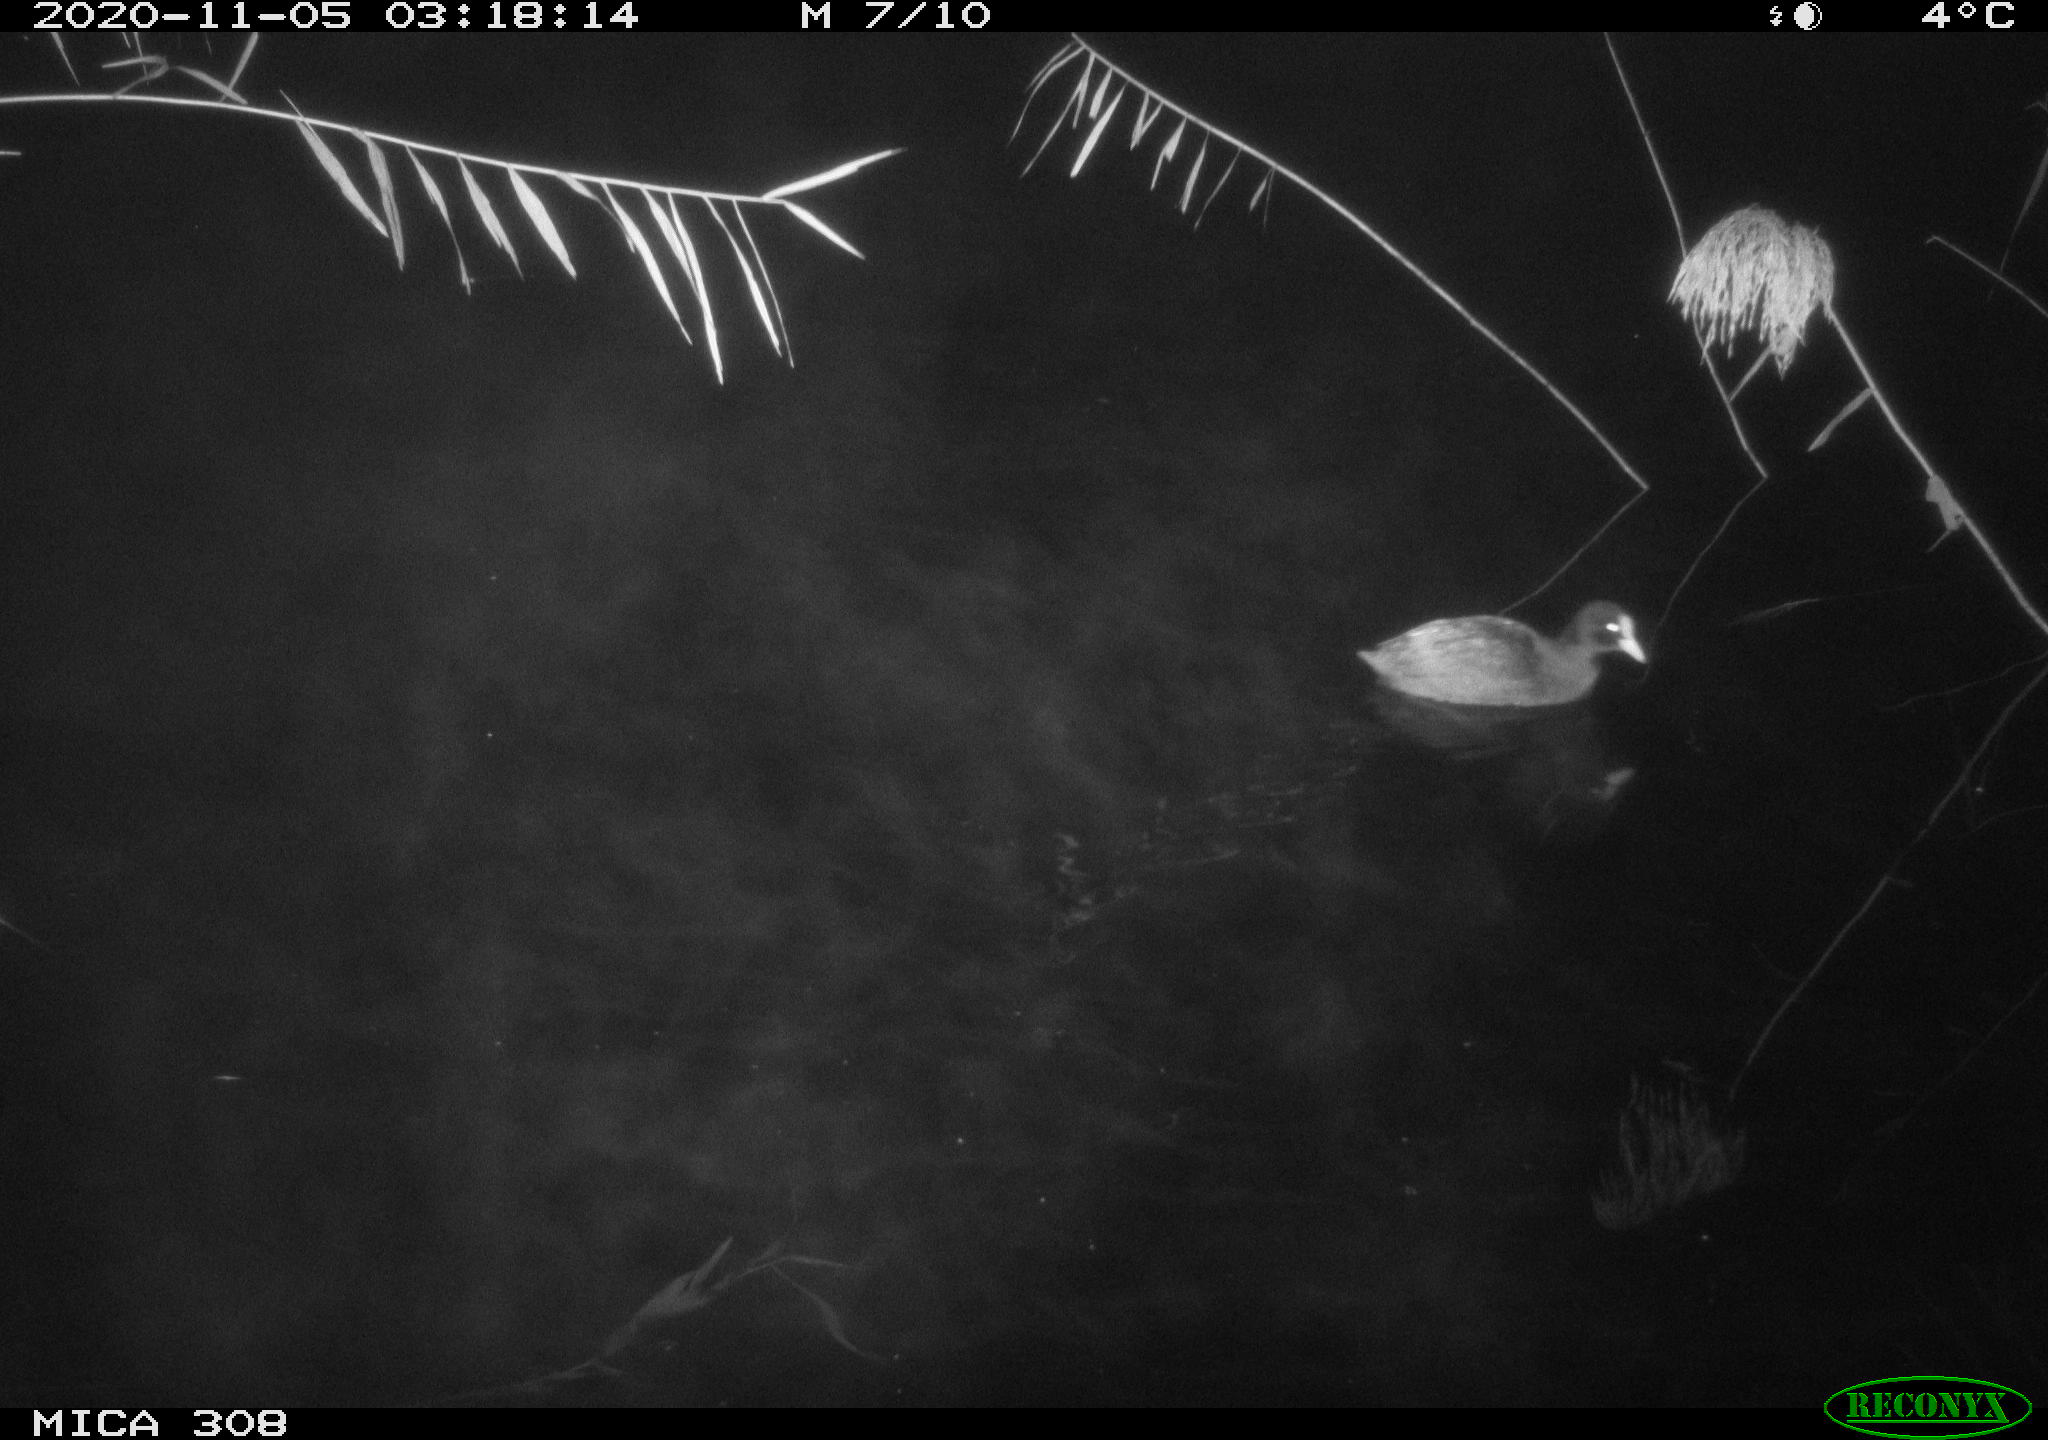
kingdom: Animalia
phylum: Chordata
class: Aves
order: Gruiformes
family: Rallidae
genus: Fulica
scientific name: Fulica atra
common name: Eurasian coot
